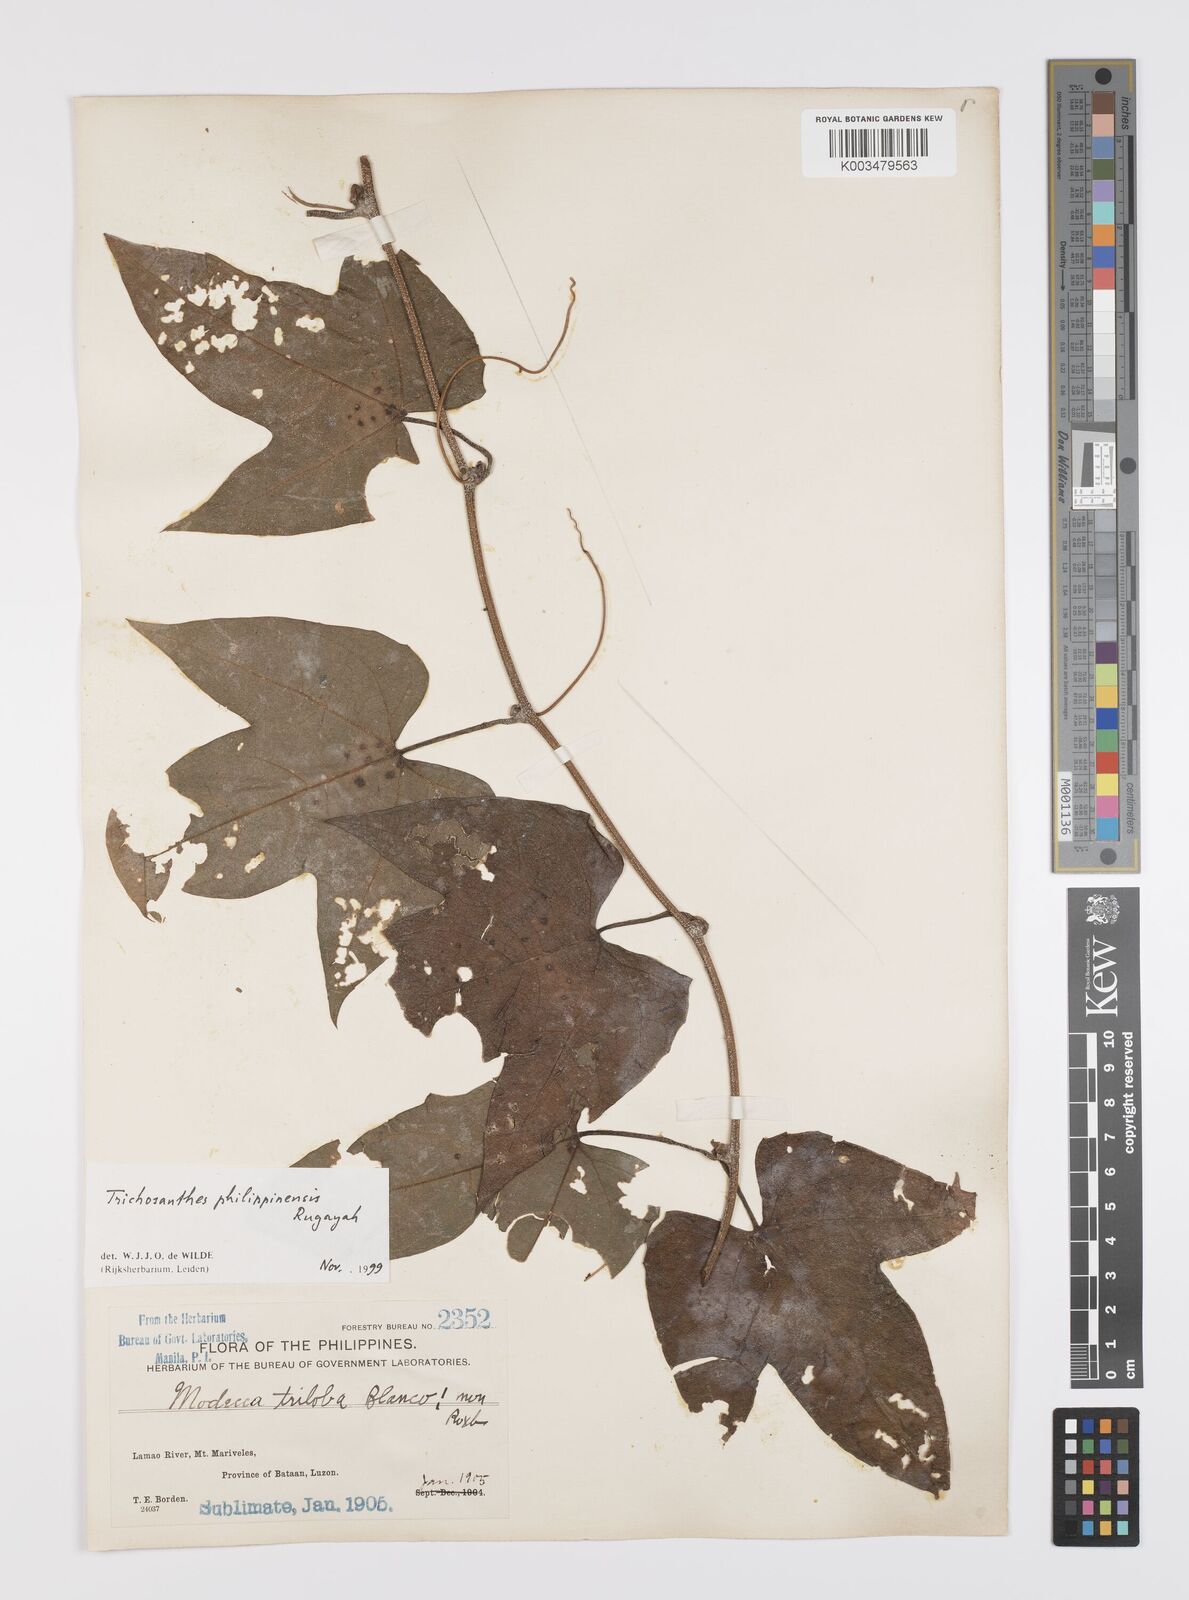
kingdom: Plantae
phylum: Tracheophyta
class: Magnoliopsida
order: Cucurbitales
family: Cucurbitaceae
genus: Trichosanthes
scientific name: Trichosanthes philippinensis
